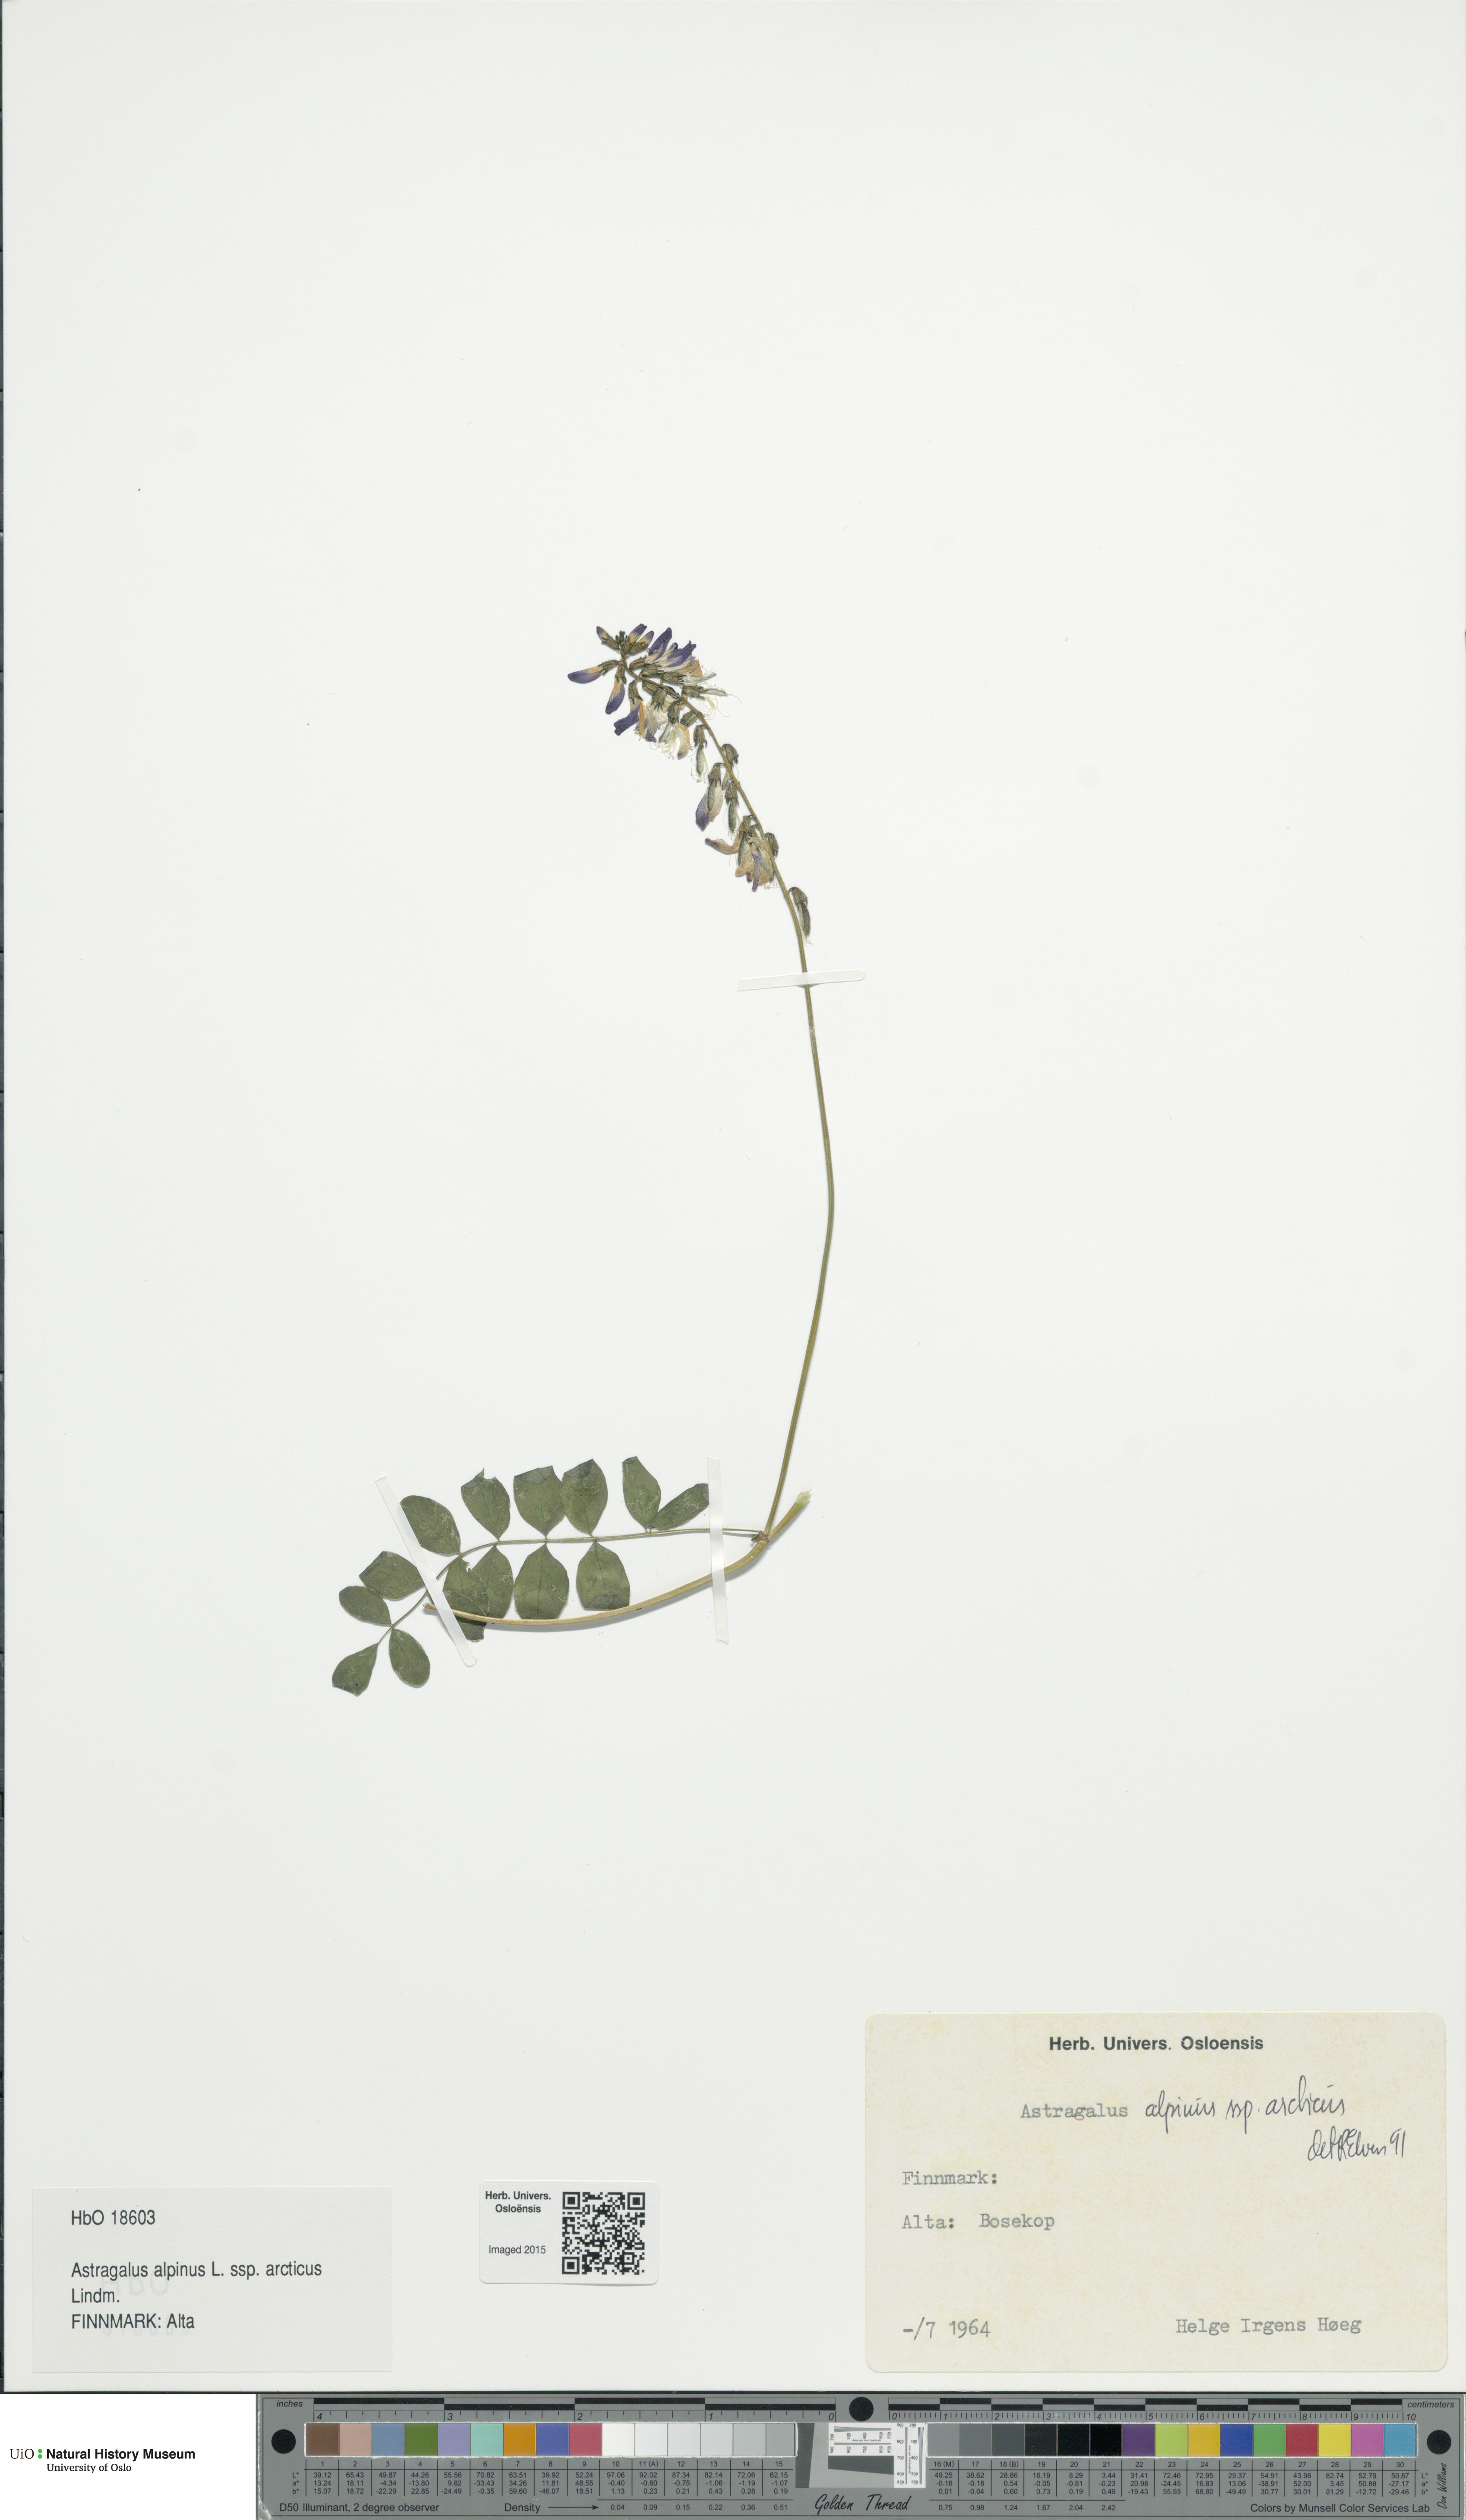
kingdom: Plantae
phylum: Tracheophyta
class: Magnoliopsida
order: Fabales
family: Fabaceae
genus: Astragalus
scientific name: Astragalus norvegicus
